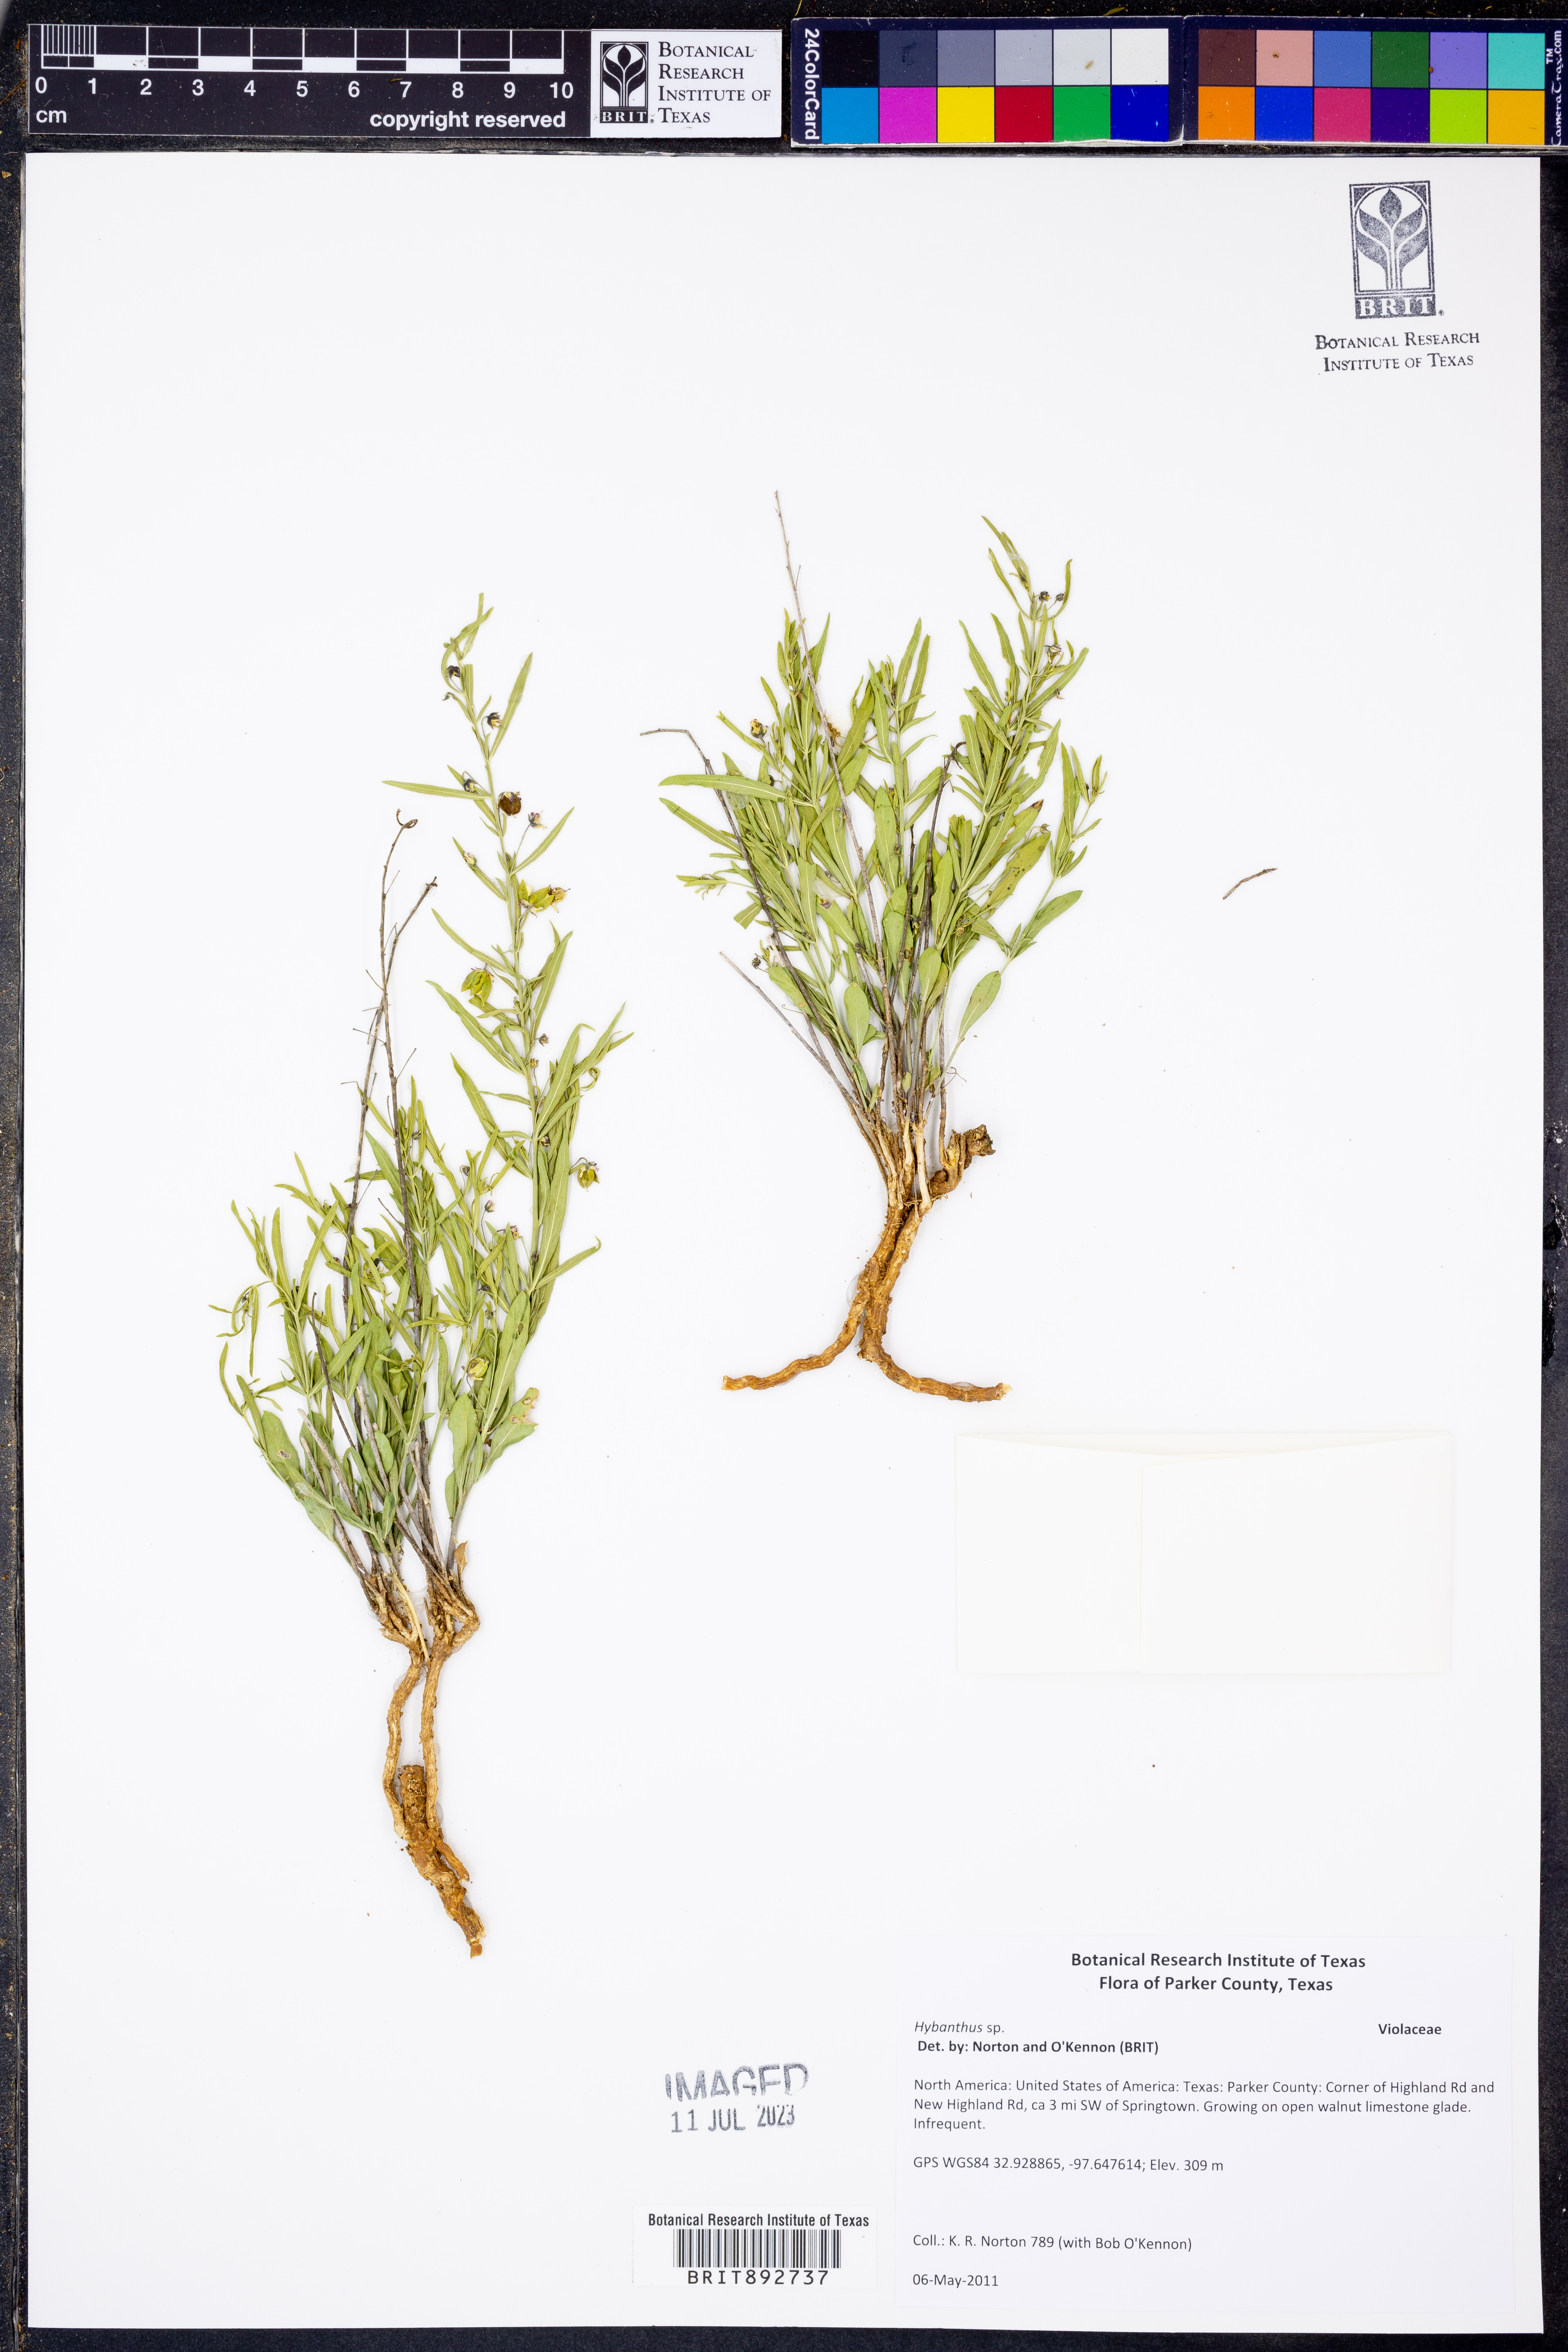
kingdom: Plantae
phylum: Tracheophyta
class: Magnoliopsida
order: Malpighiales
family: Violaceae
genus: Hybanthus
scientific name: Hybanthus
